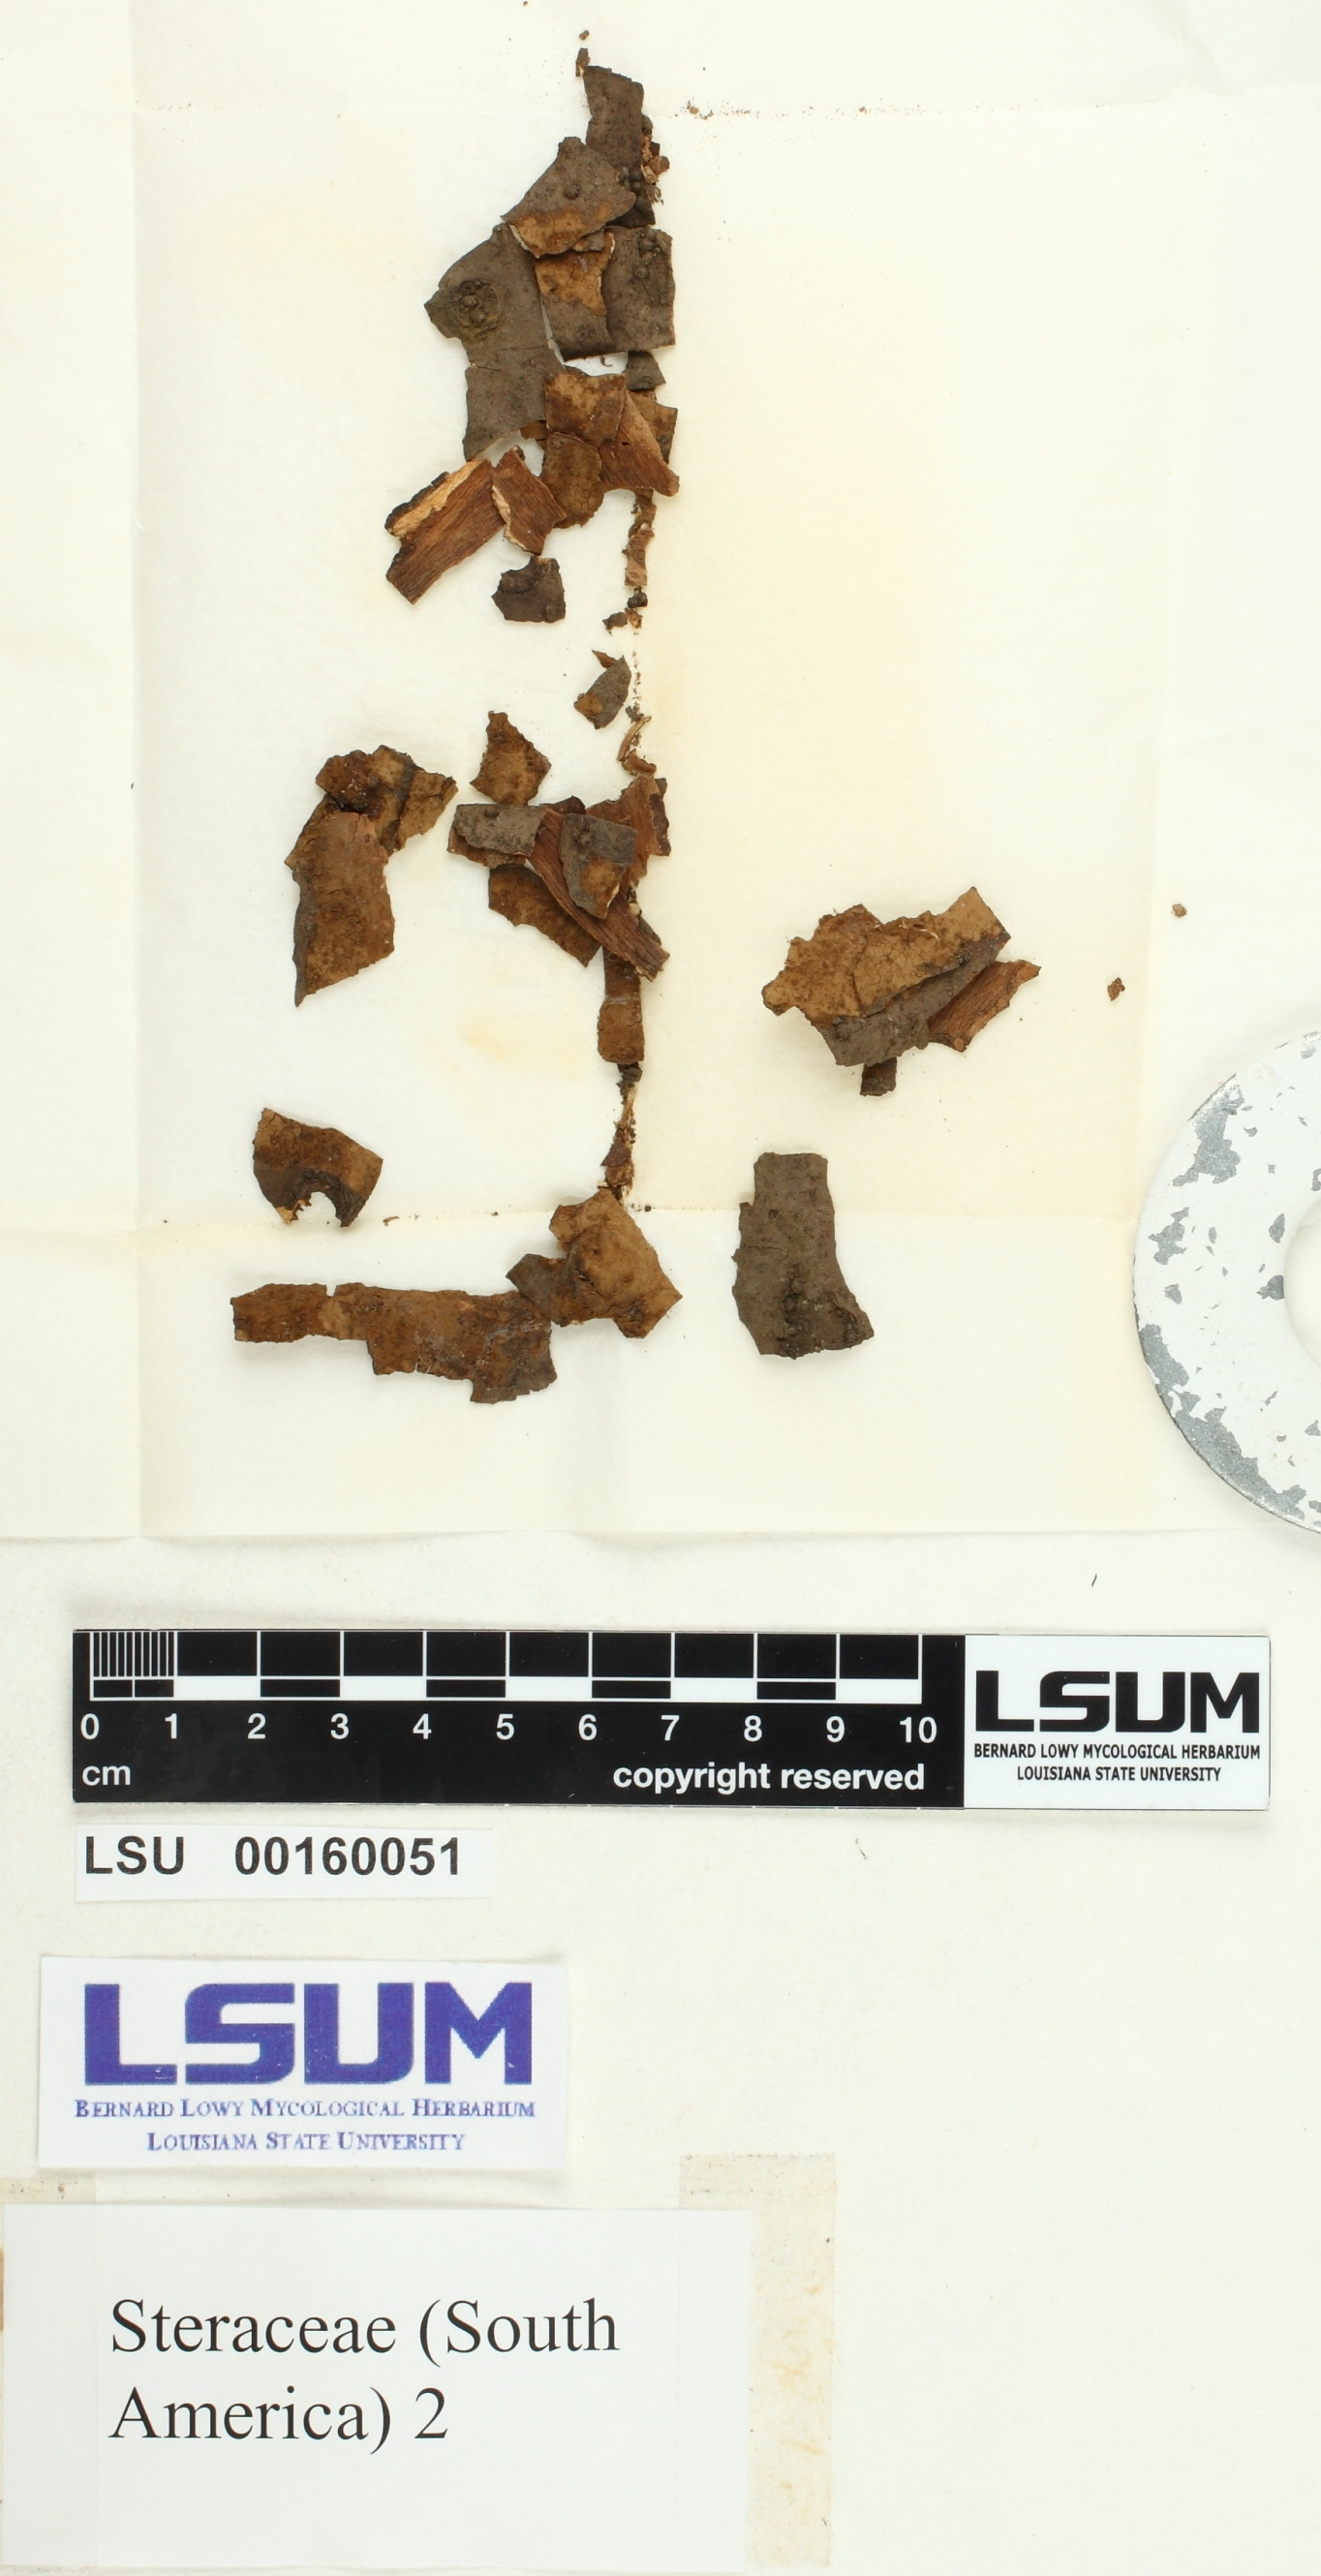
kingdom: Fungi
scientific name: Fungi
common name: Fungi
